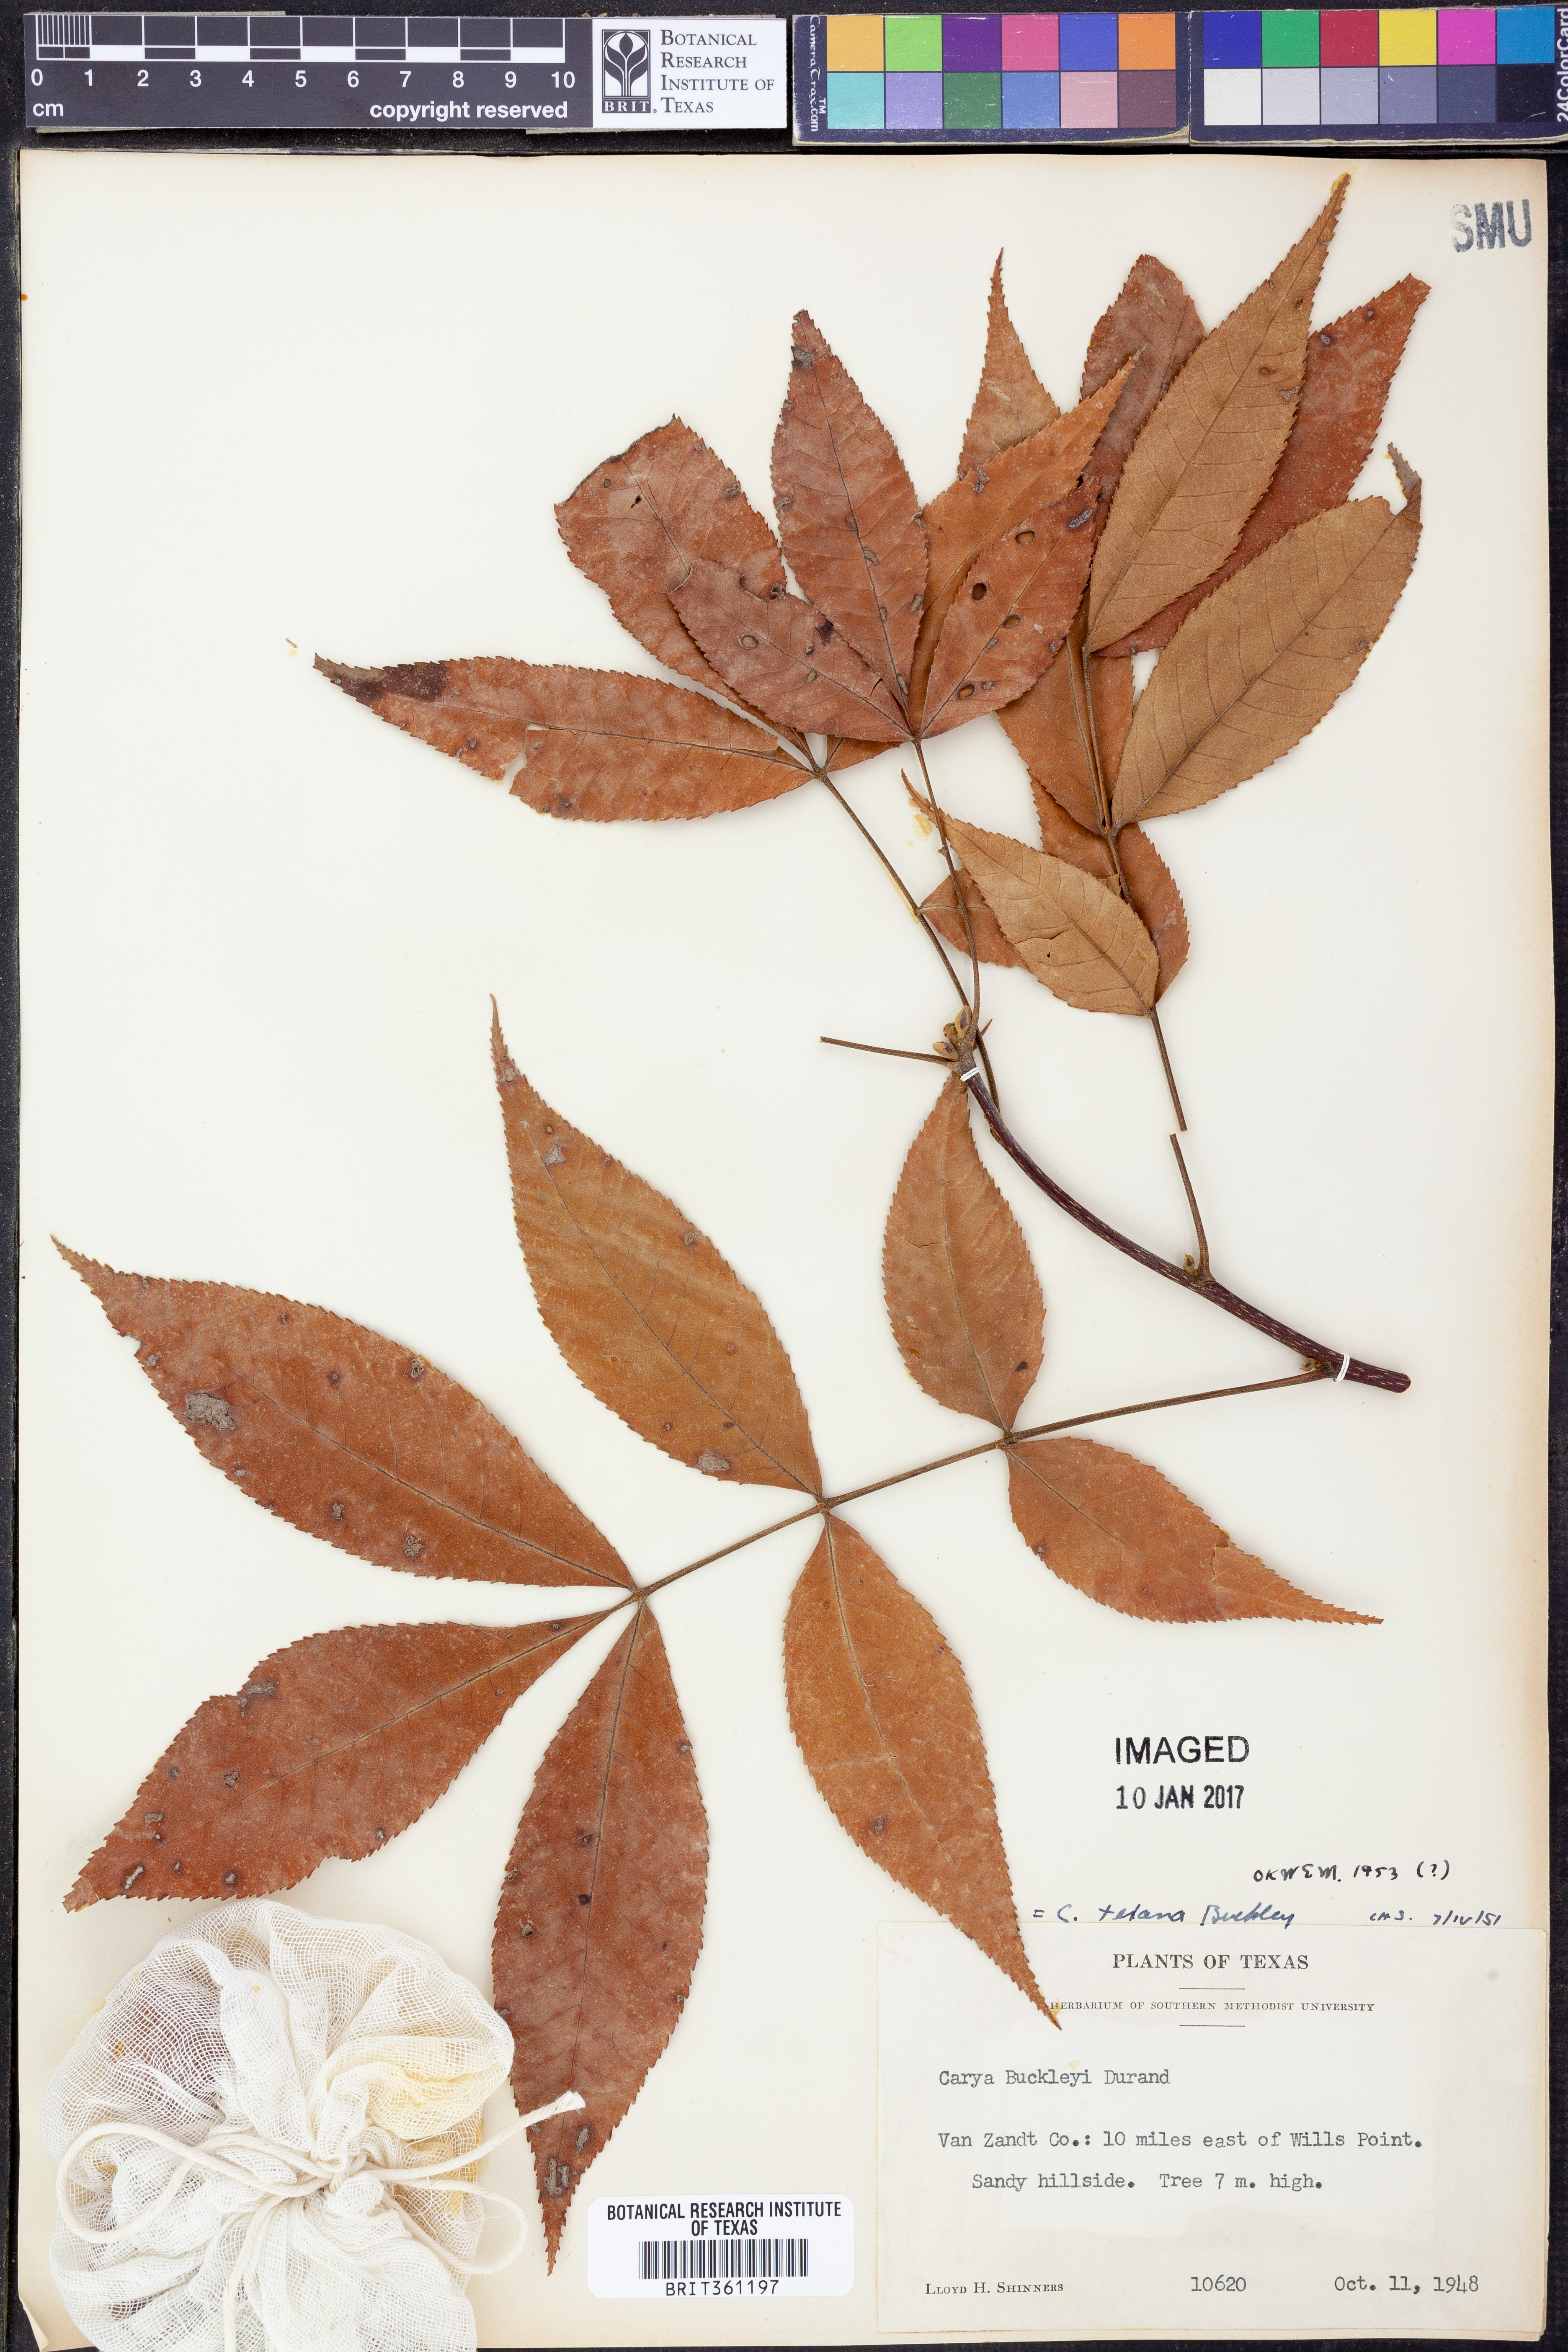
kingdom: Plantae
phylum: Tracheophyta
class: Magnoliopsida
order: Fagales
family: Juglandaceae
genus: Carya
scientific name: Carya texana
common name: Black hickory
